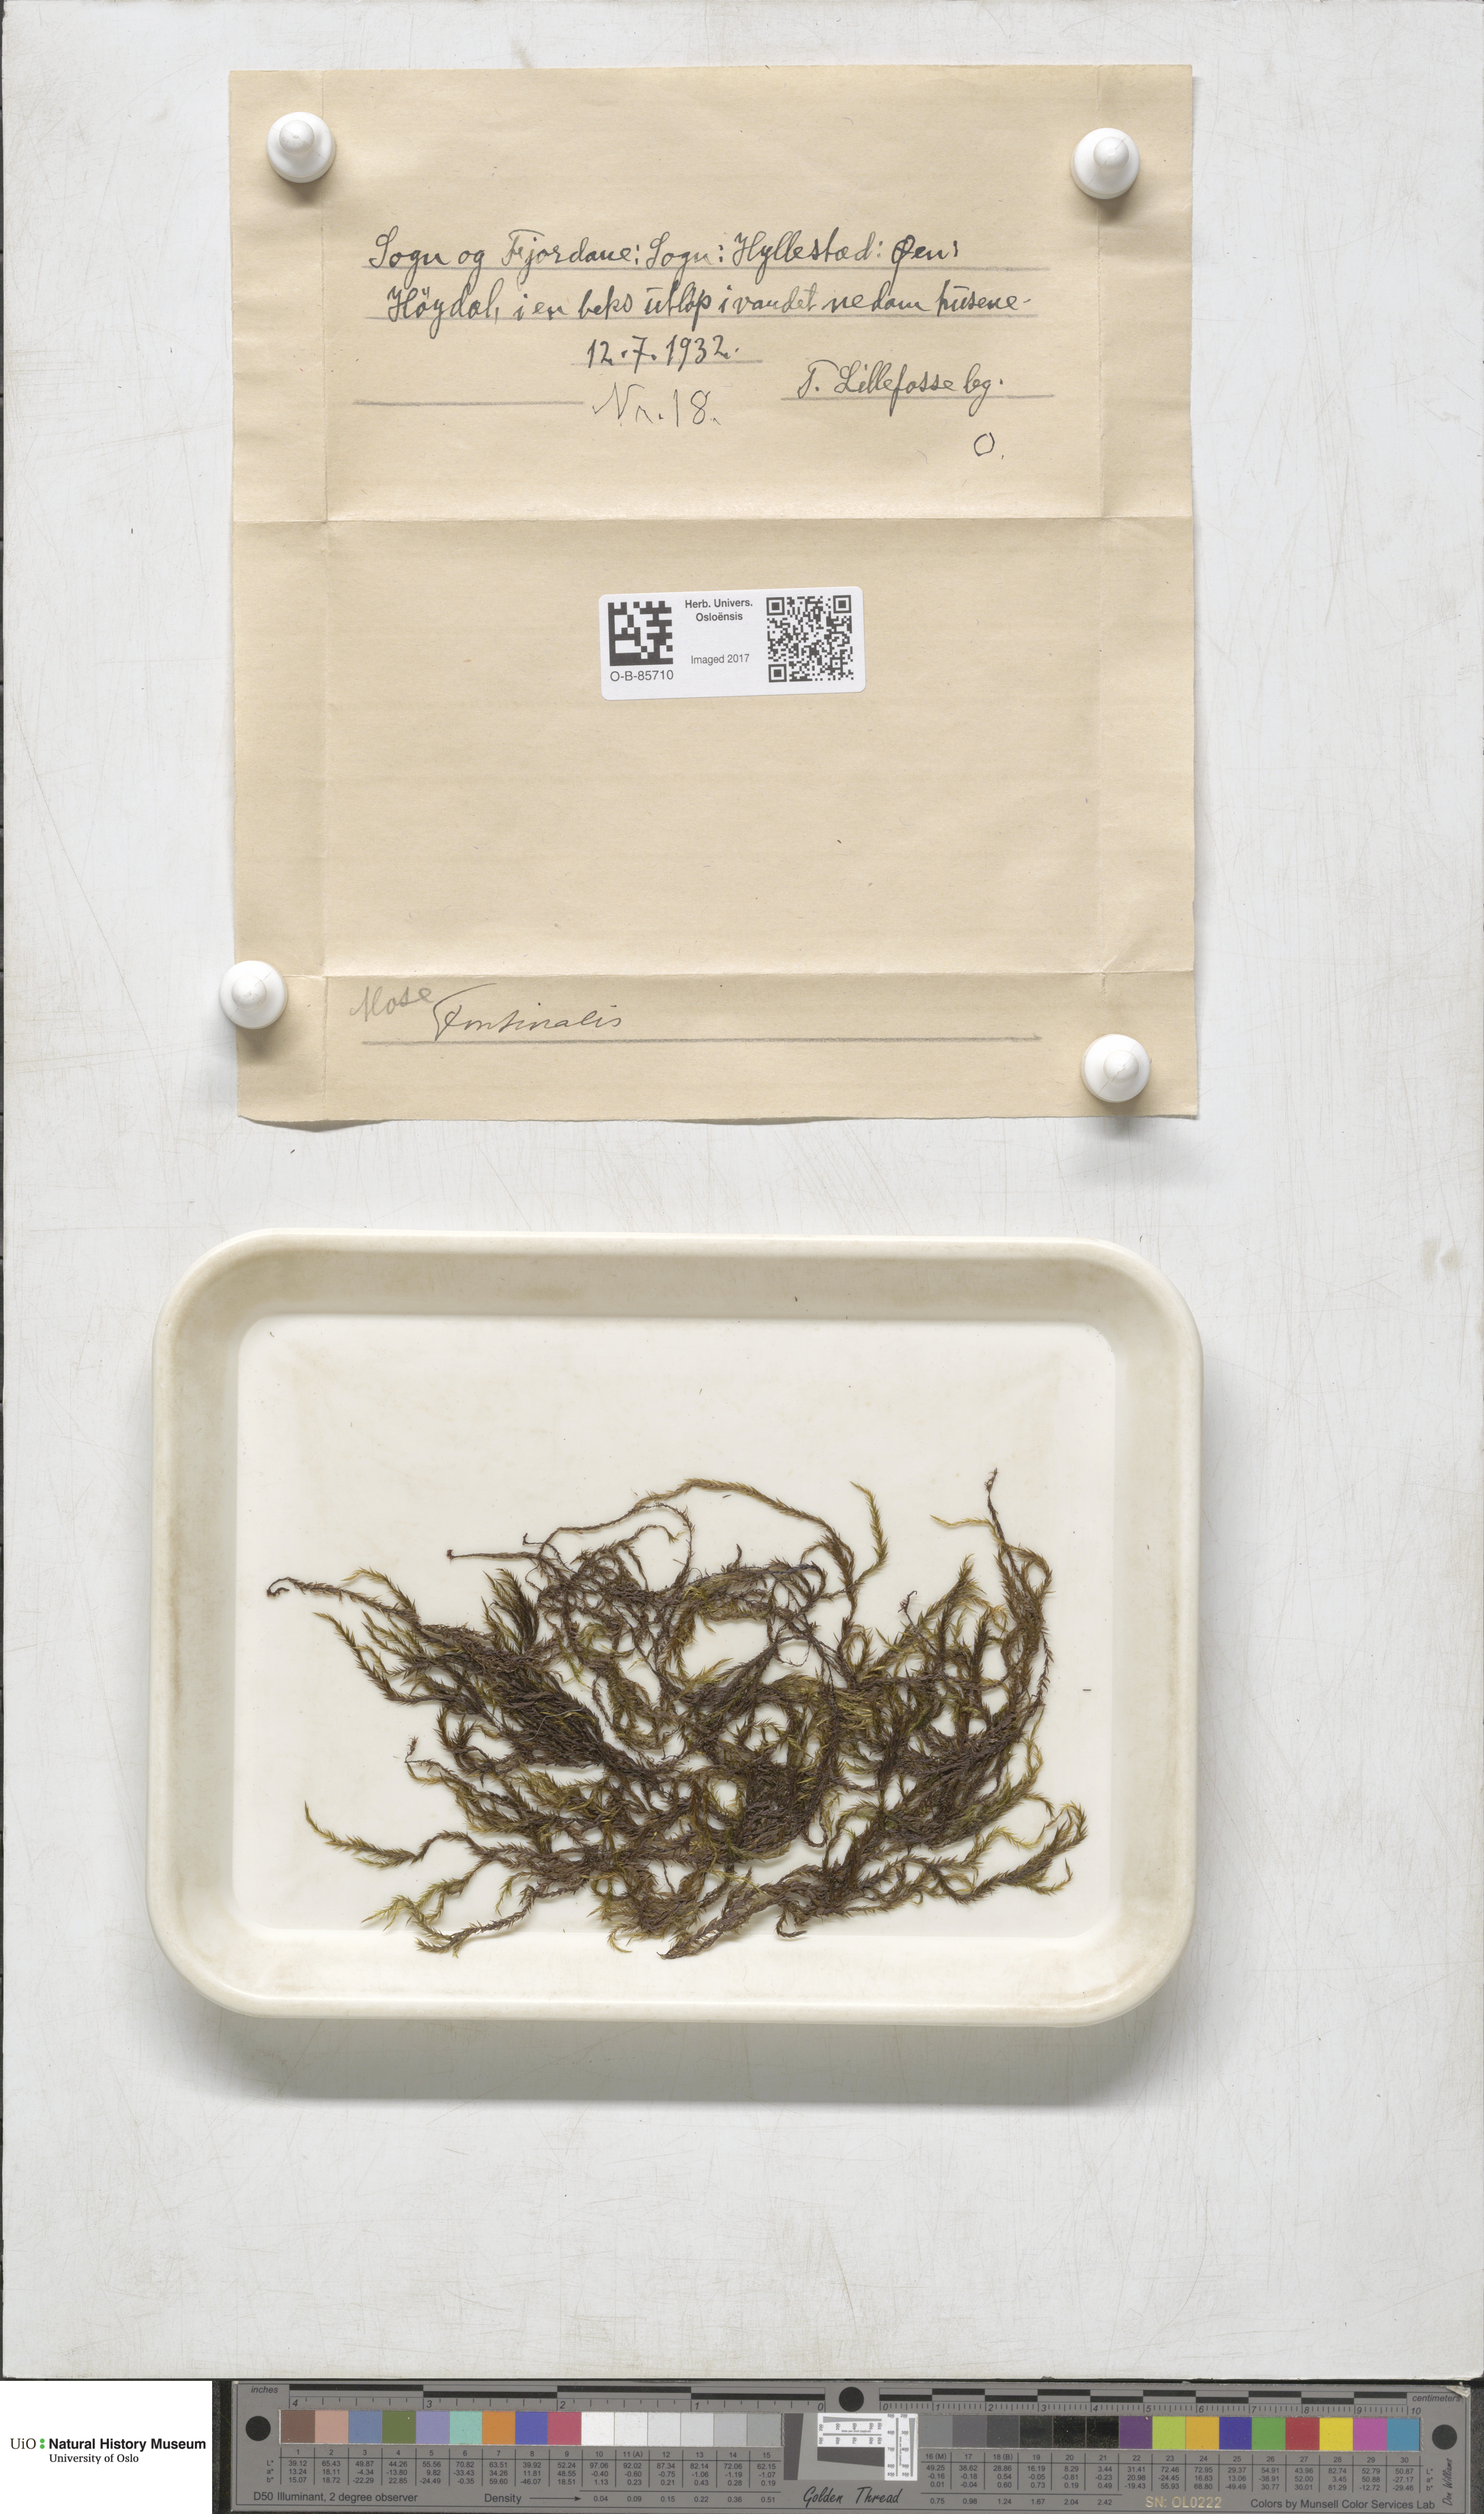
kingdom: Plantae
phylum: Bryophyta
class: Bryopsida
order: Hypnales
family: Fontinalaceae
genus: Fontinalis
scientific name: Fontinalis
